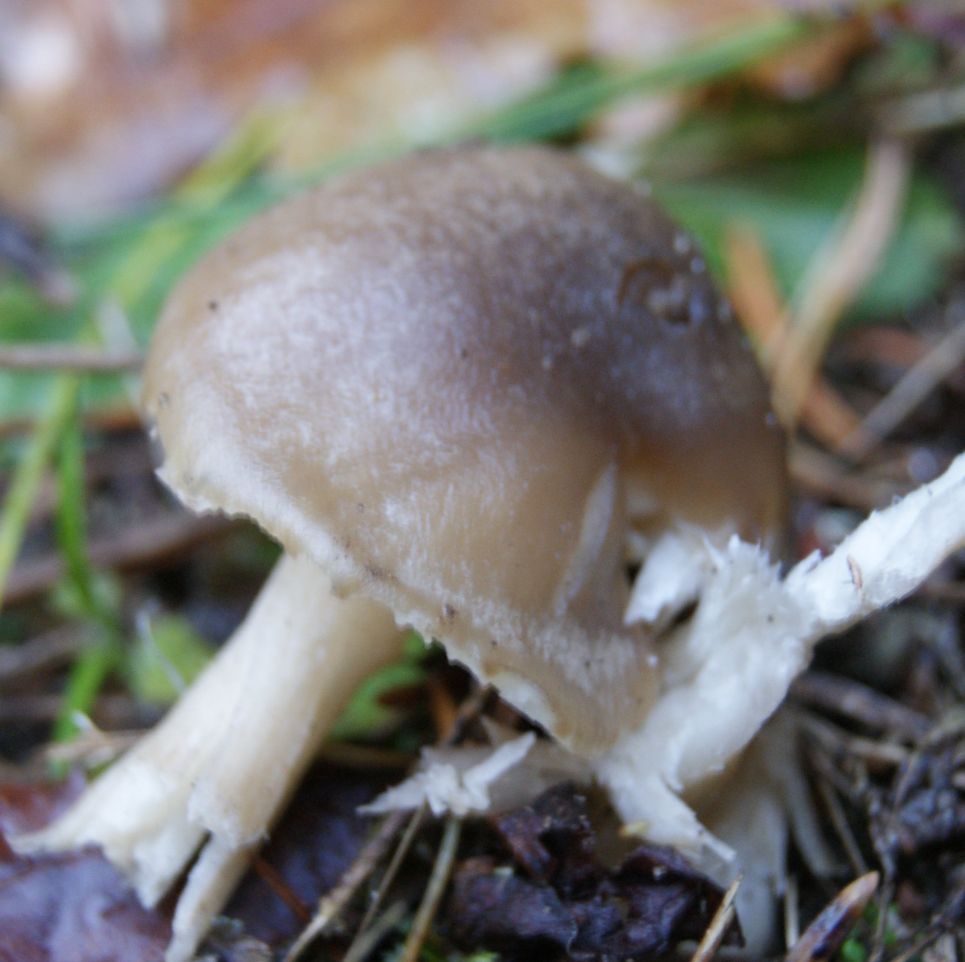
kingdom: Fungi
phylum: Basidiomycota
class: Agaricomycetes
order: Agaricales
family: Hygrophoraceae
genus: Hygrophorus
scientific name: Hygrophorus pustulatus
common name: mørkprikket sneglehat
